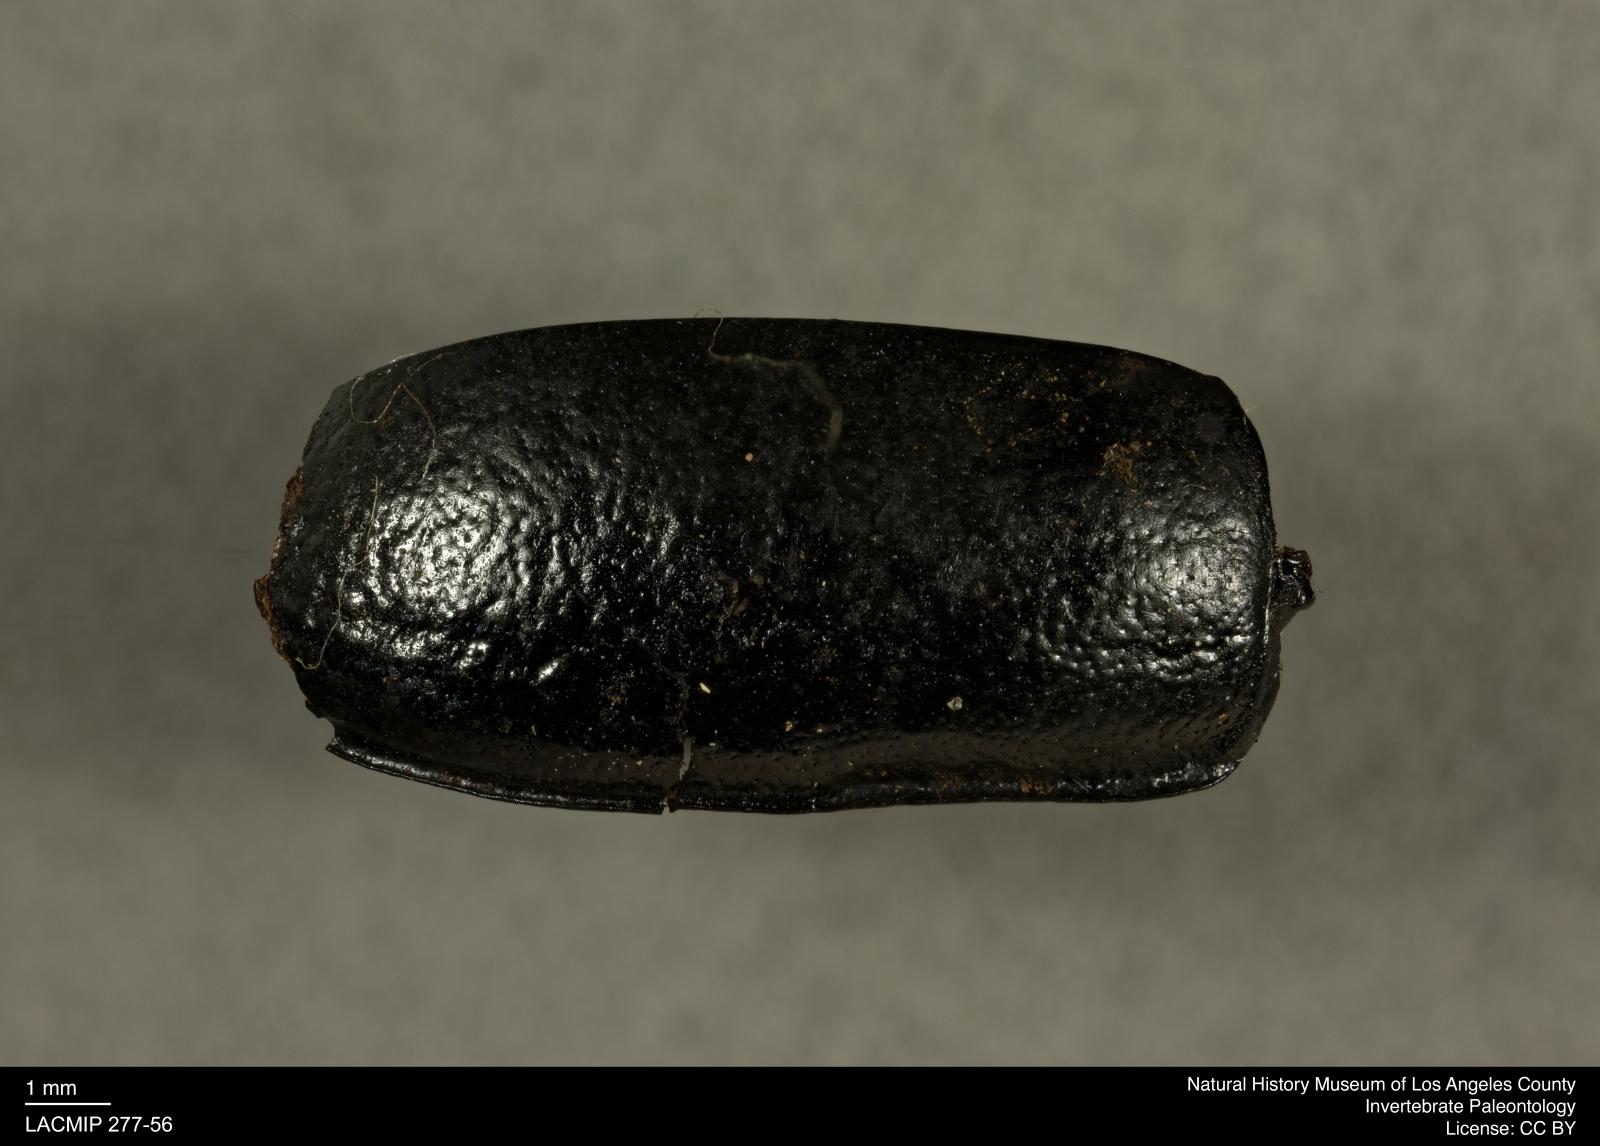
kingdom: Animalia
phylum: Arthropoda
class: Insecta
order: Coleoptera
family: Tenebrionidae
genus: Coniontis
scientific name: Coniontis abdominalis
